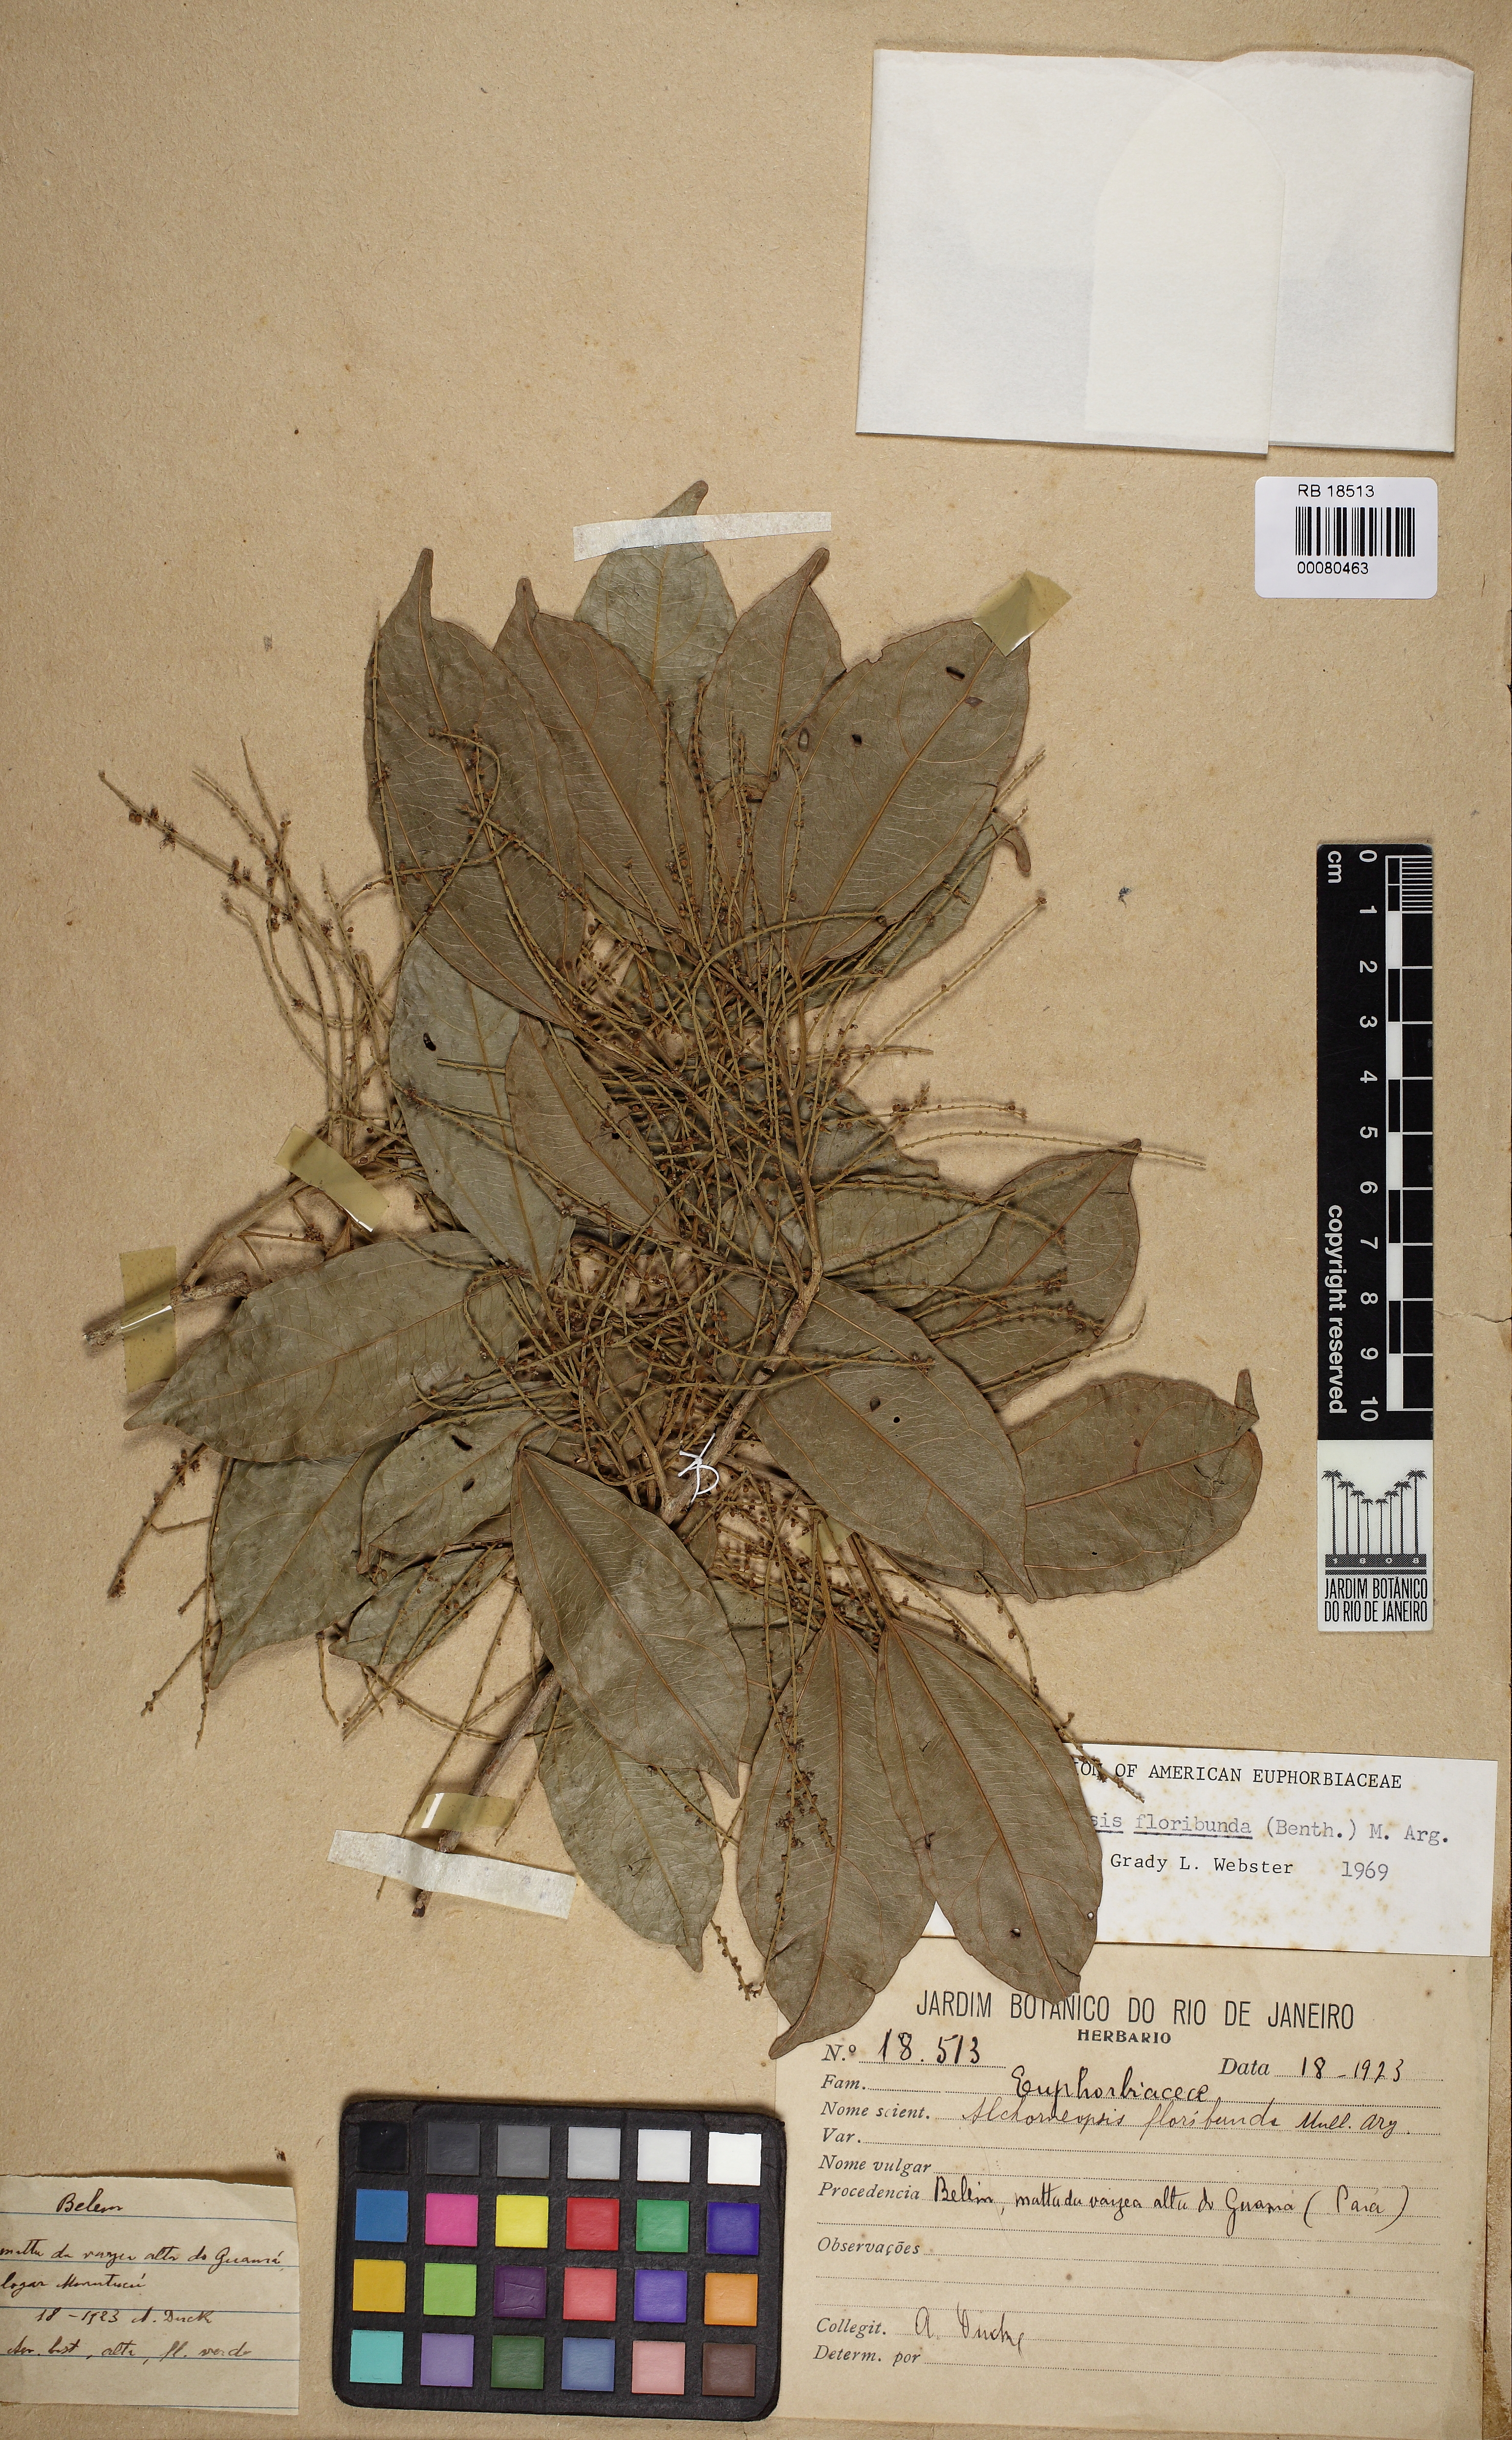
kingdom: Plantae
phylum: Tracheophyta
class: Magnoliopsida
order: Malpighiales
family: Euphorbiaceae
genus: Alchorneopsis
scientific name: Alchorneopsis floribunda
